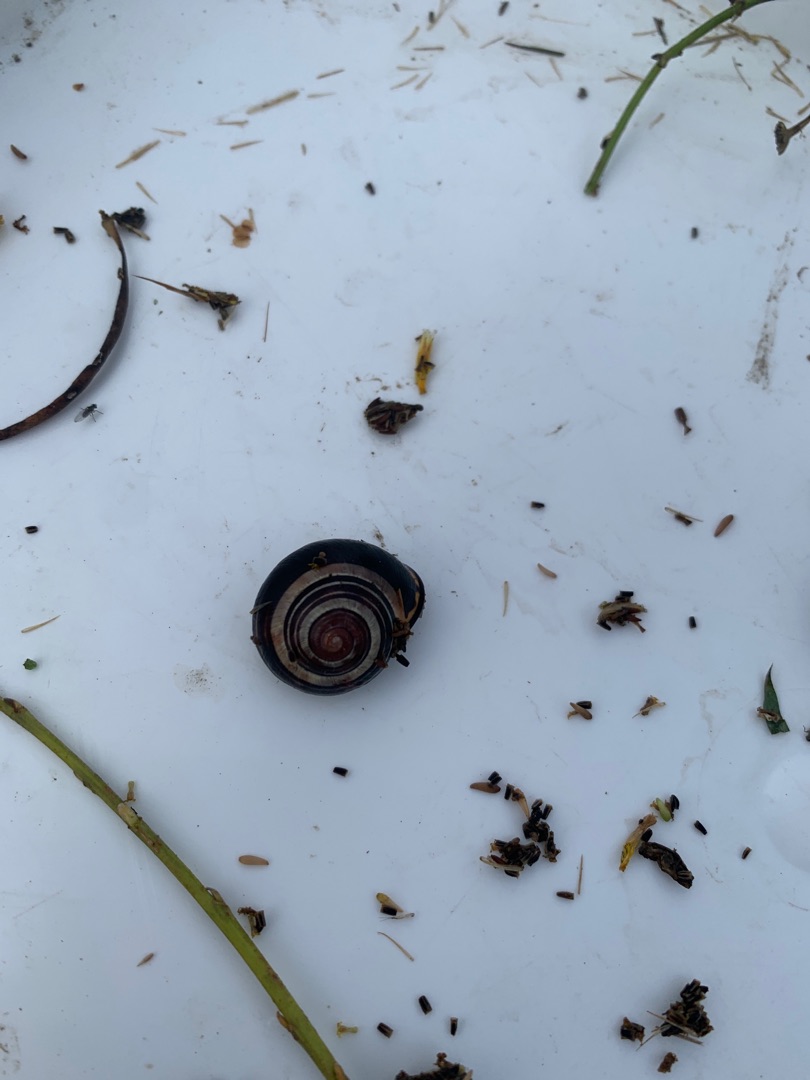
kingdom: Animalia
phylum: Mollusca
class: Gastropoda
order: Stylommatophora
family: Helicidae
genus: Cepaea
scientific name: Cepaea nemoralis
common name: Lundsnegl
